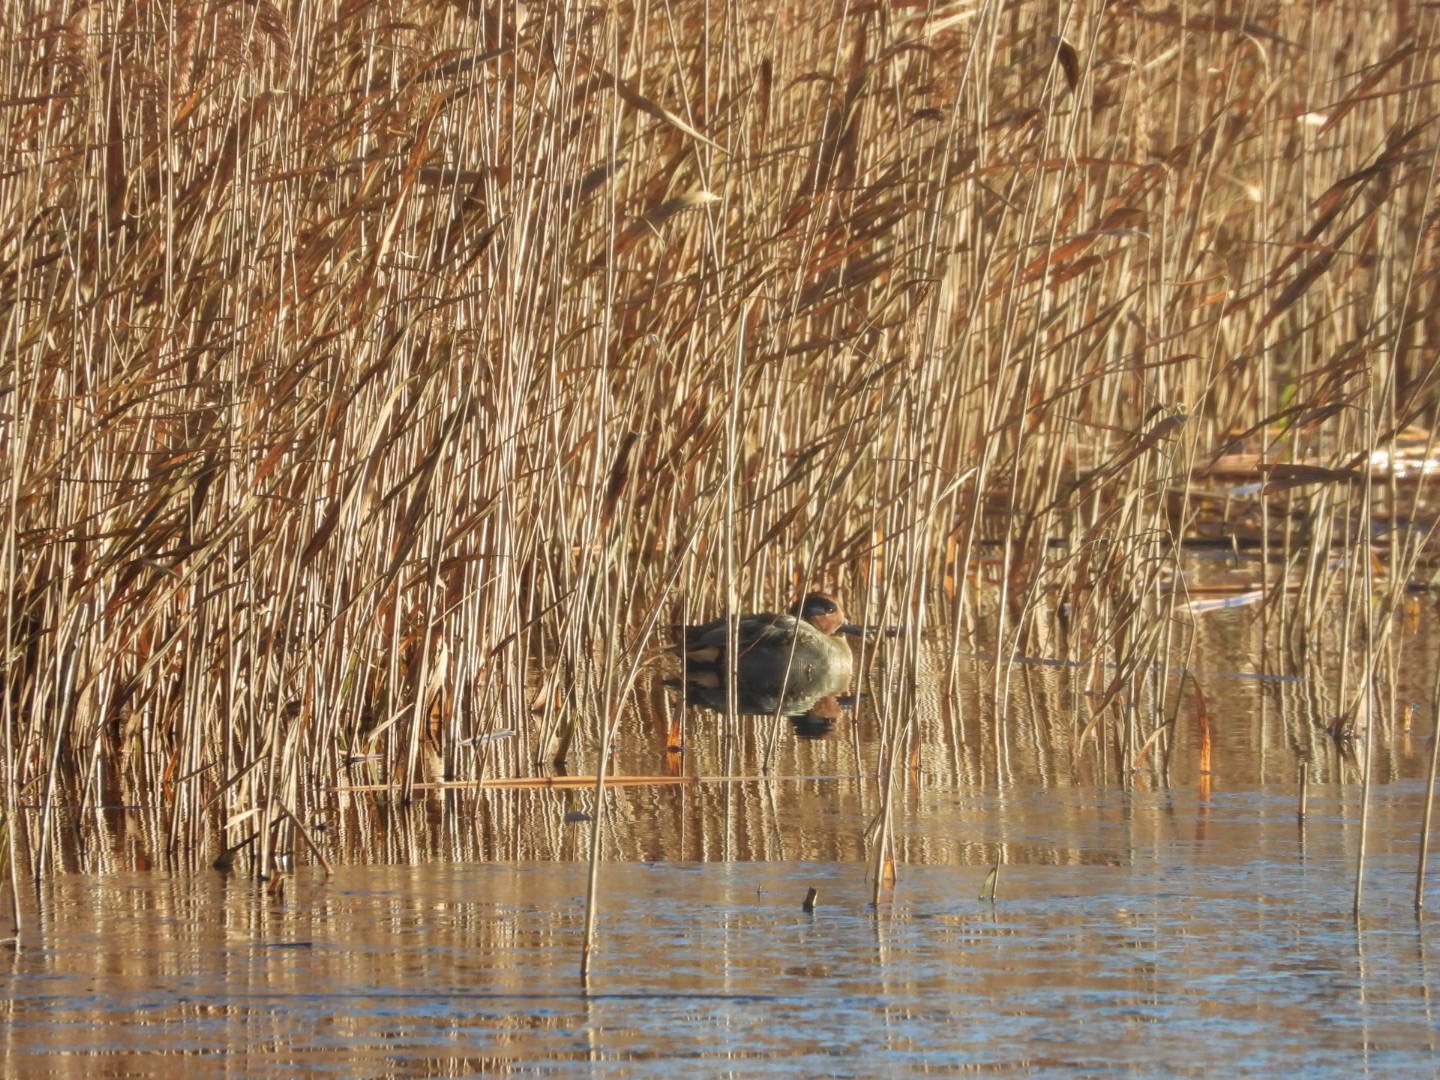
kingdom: Animalia
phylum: Chordata
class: Aves
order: Anseriformes
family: Anatidae
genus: Anas
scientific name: Anas crecca
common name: Krikand
